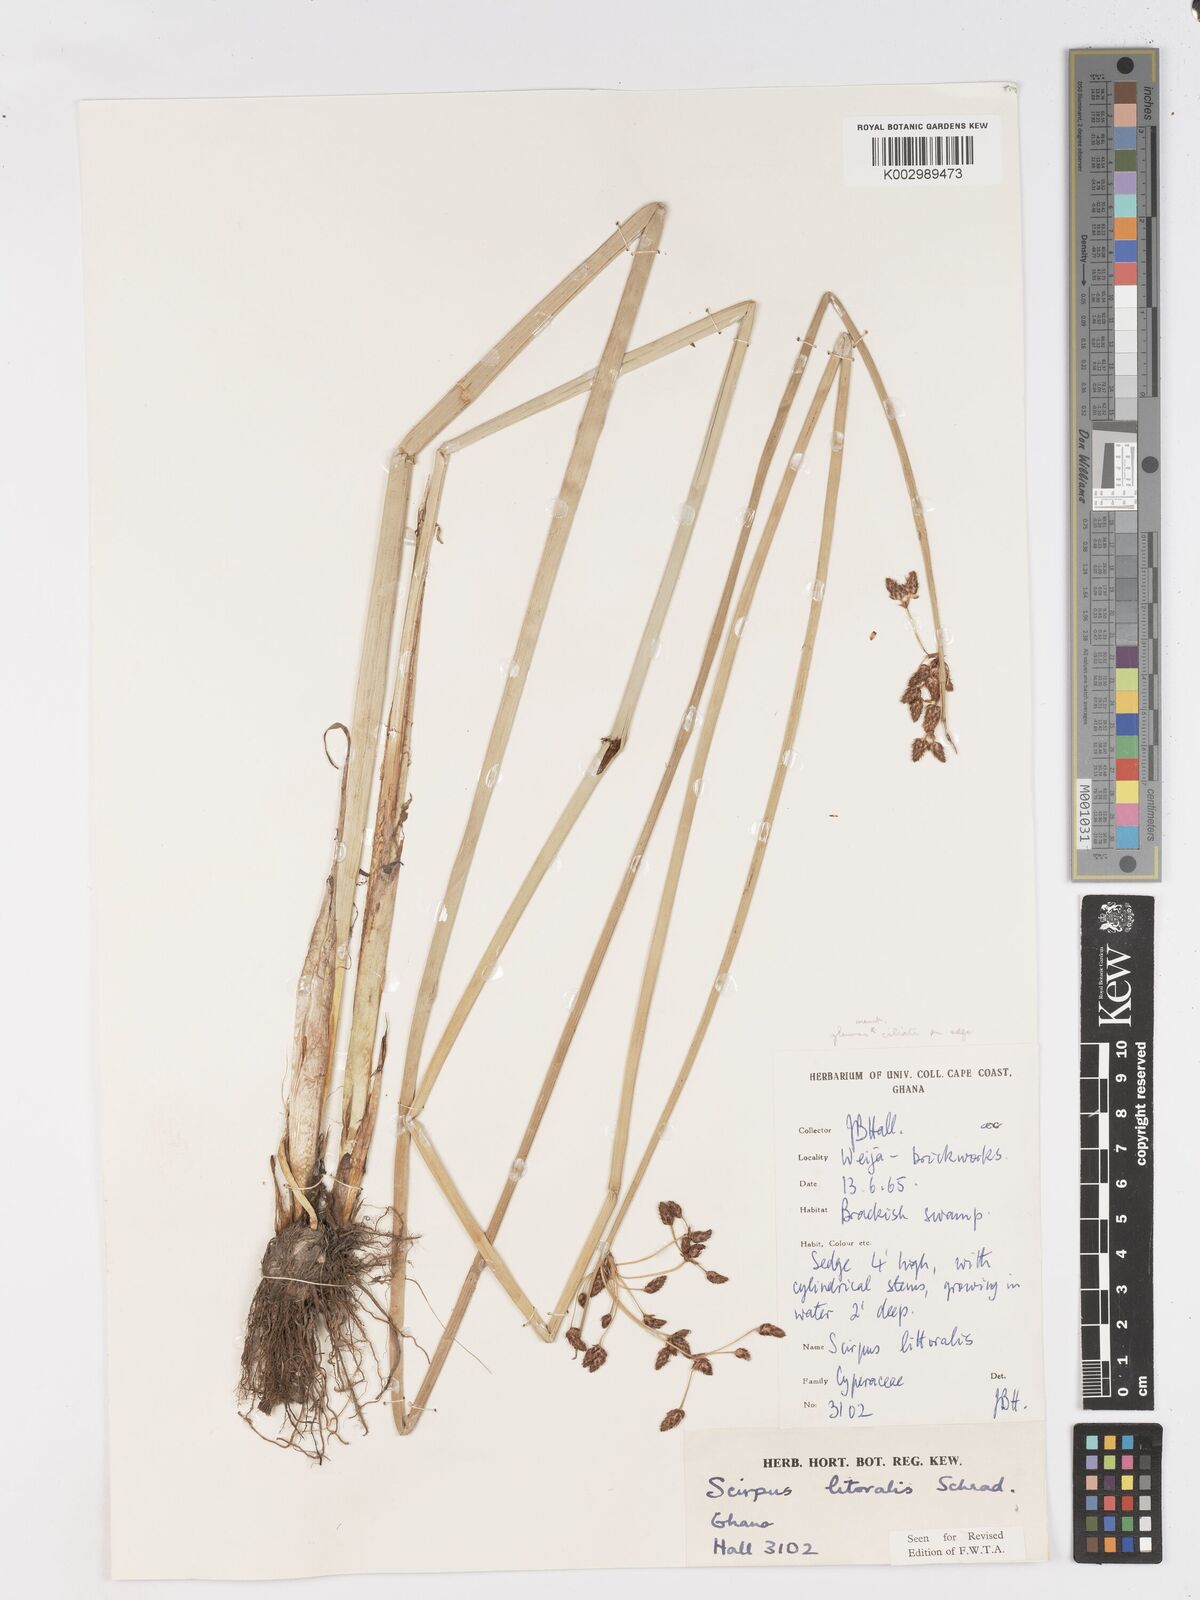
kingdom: Plantae
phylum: Tracheophyta
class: Liliopsida
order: Poales
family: Cyperaceae
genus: Schoenoplectus
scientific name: Schoenoplectus litoralis
